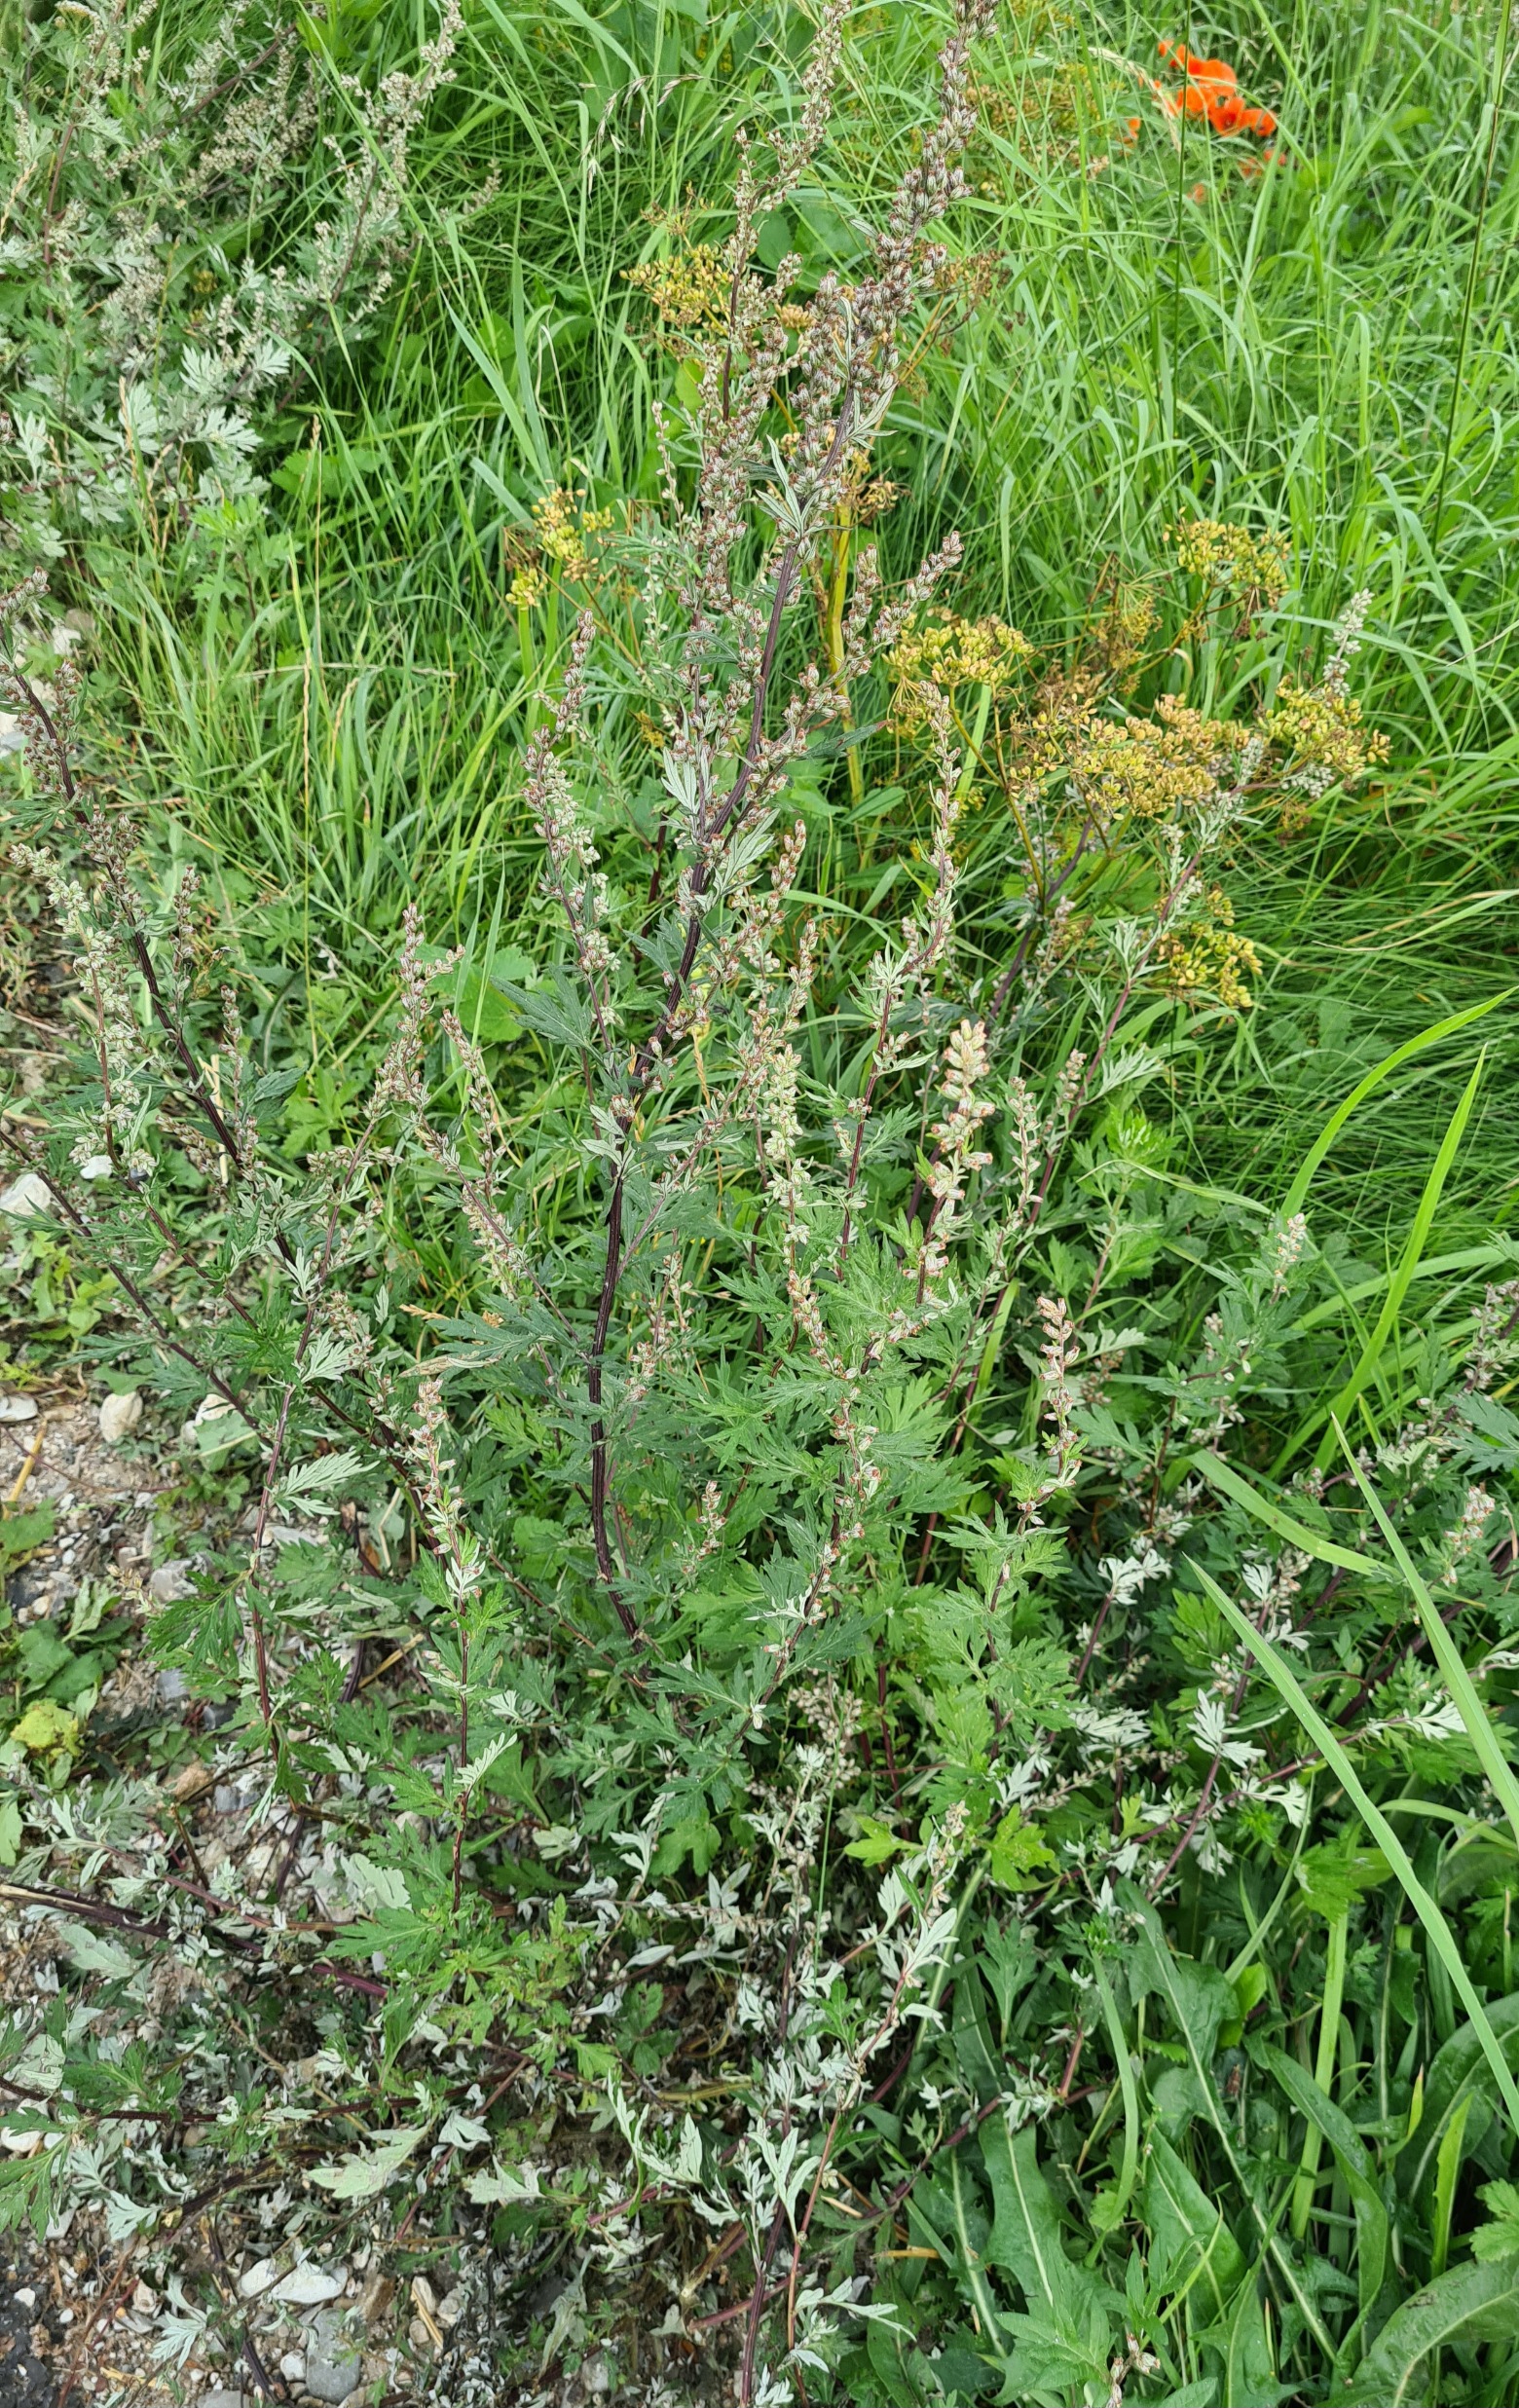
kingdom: Plantae
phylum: Tracheophyta
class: Magnoliopsida
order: Asterales
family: Asteraceae
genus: Artemisia
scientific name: Artemisia vulgaris
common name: Grå-bynke
